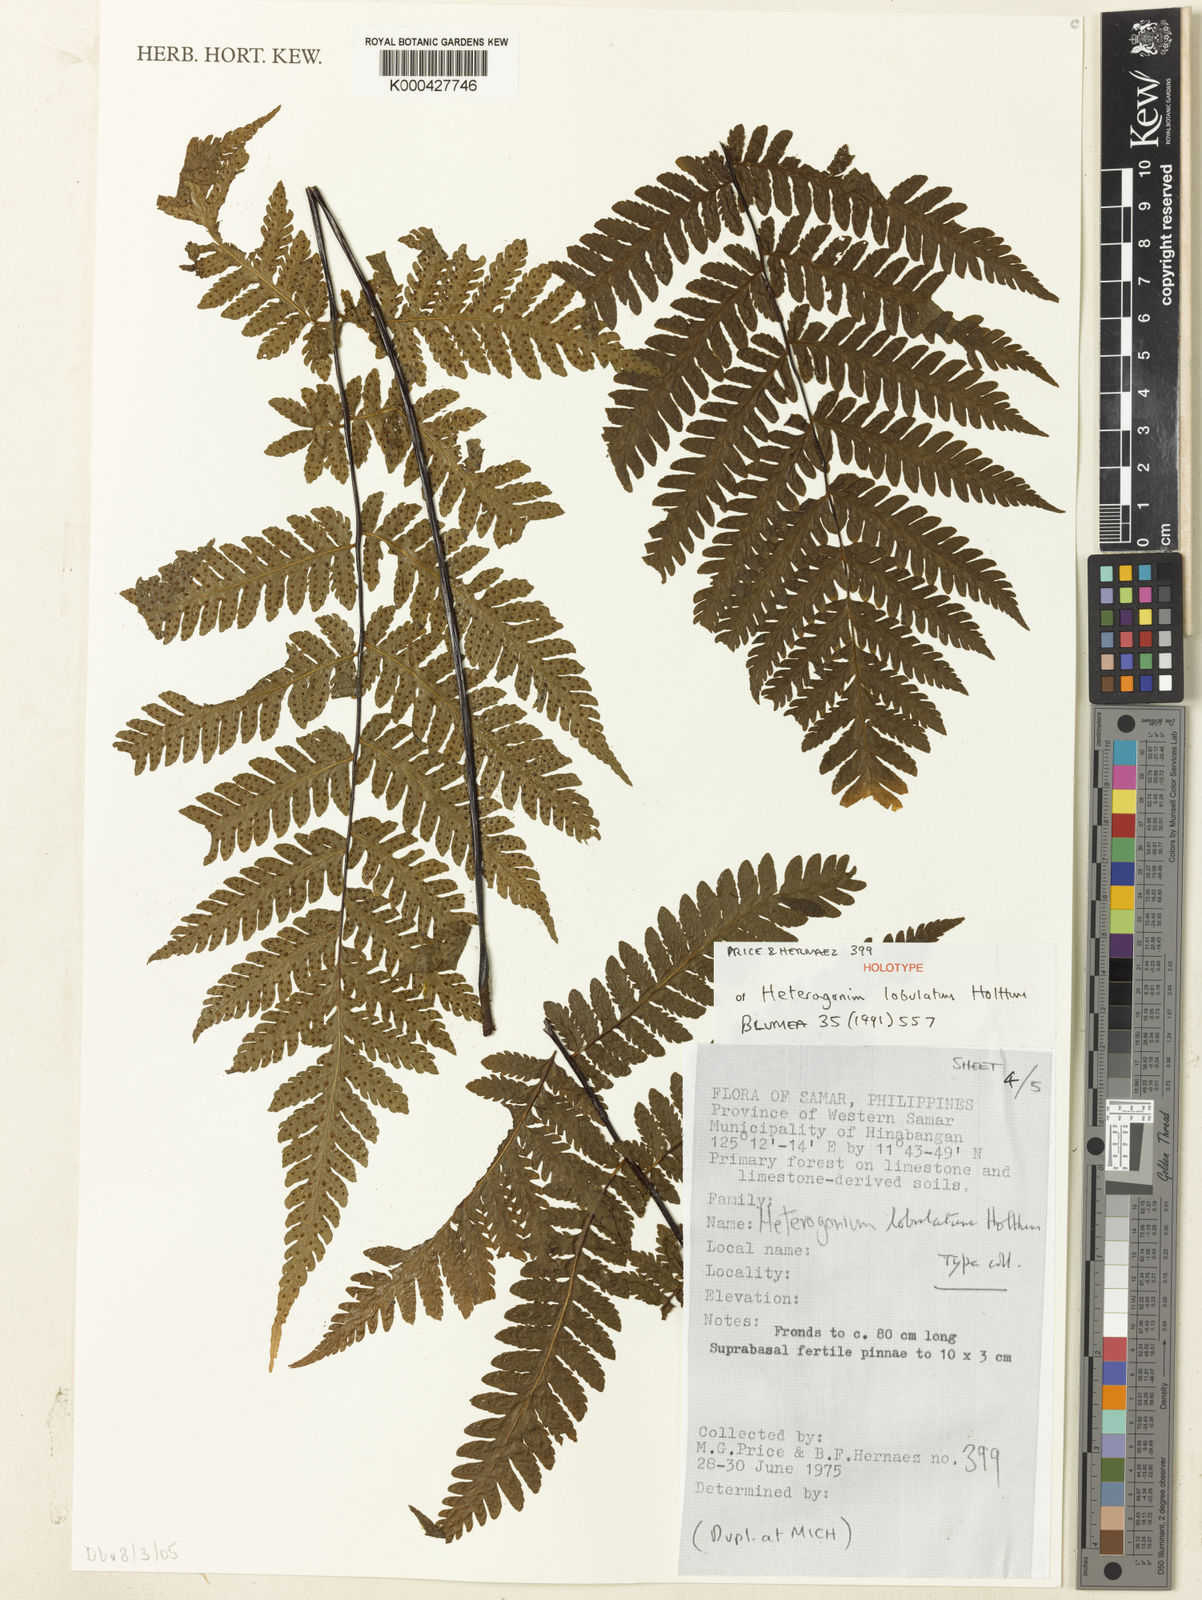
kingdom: Plantae
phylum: Tracheophyta
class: Polypodiopsida
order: Polypodiales
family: Tectariaceae
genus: Tectaria
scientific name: Tectaria samariana
